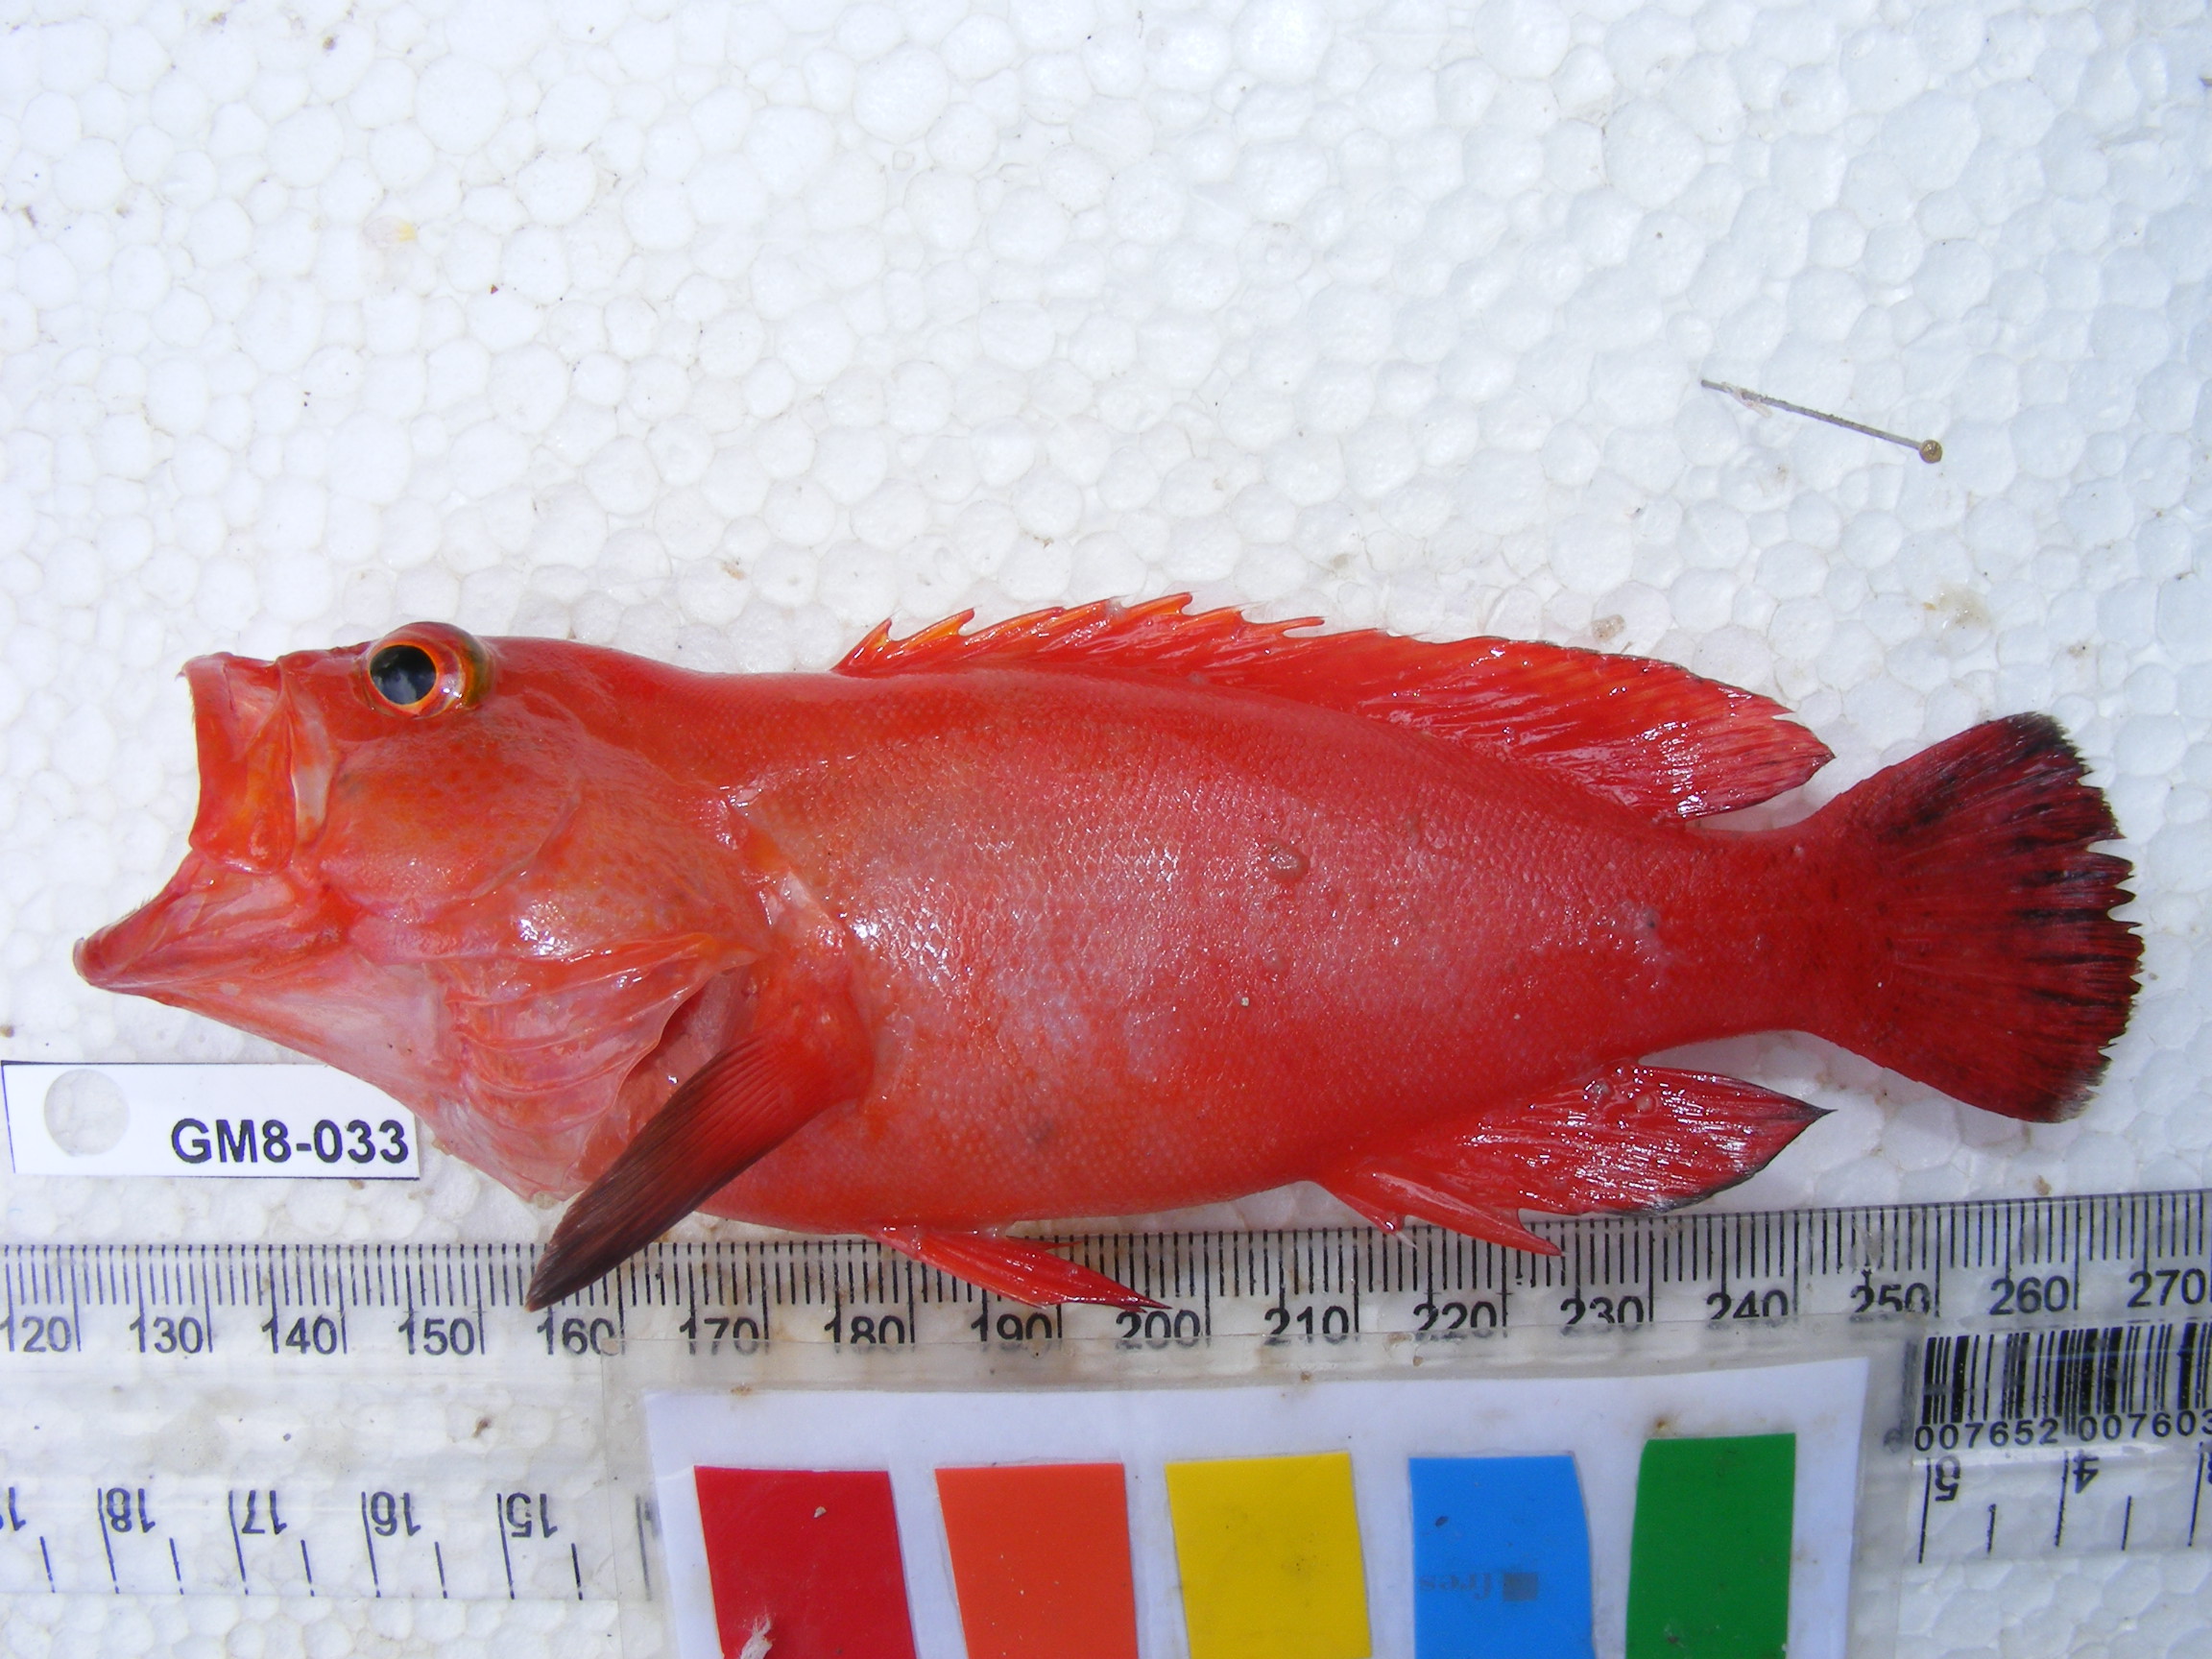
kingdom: Animalia
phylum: Chordata
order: Perciformes
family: Serranidae
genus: Cephalopholis
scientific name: Cephalopholis nigripinnis
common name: Duskyfin hind
